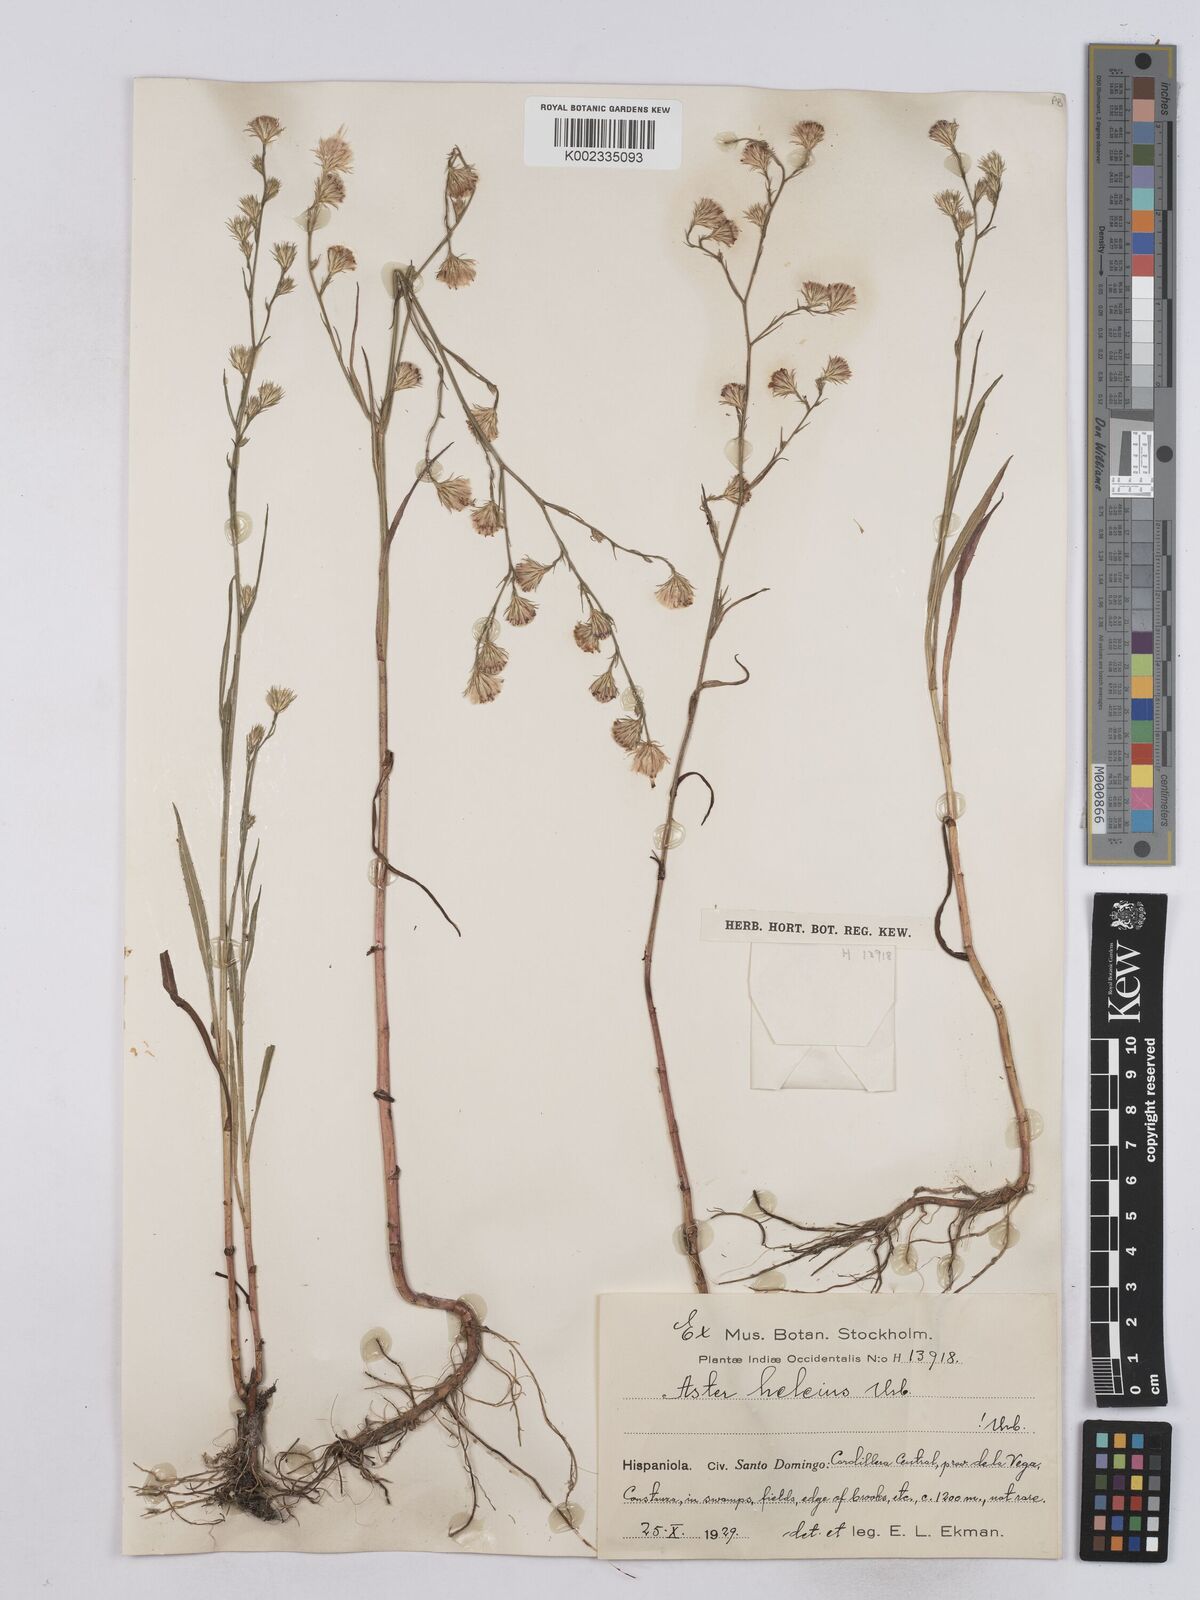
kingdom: Plantae
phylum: Tracheophyta
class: Magnoliopsida
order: Asterales
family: Asteraceae
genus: Symphyotrichum
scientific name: Symphyotrichum expansum
